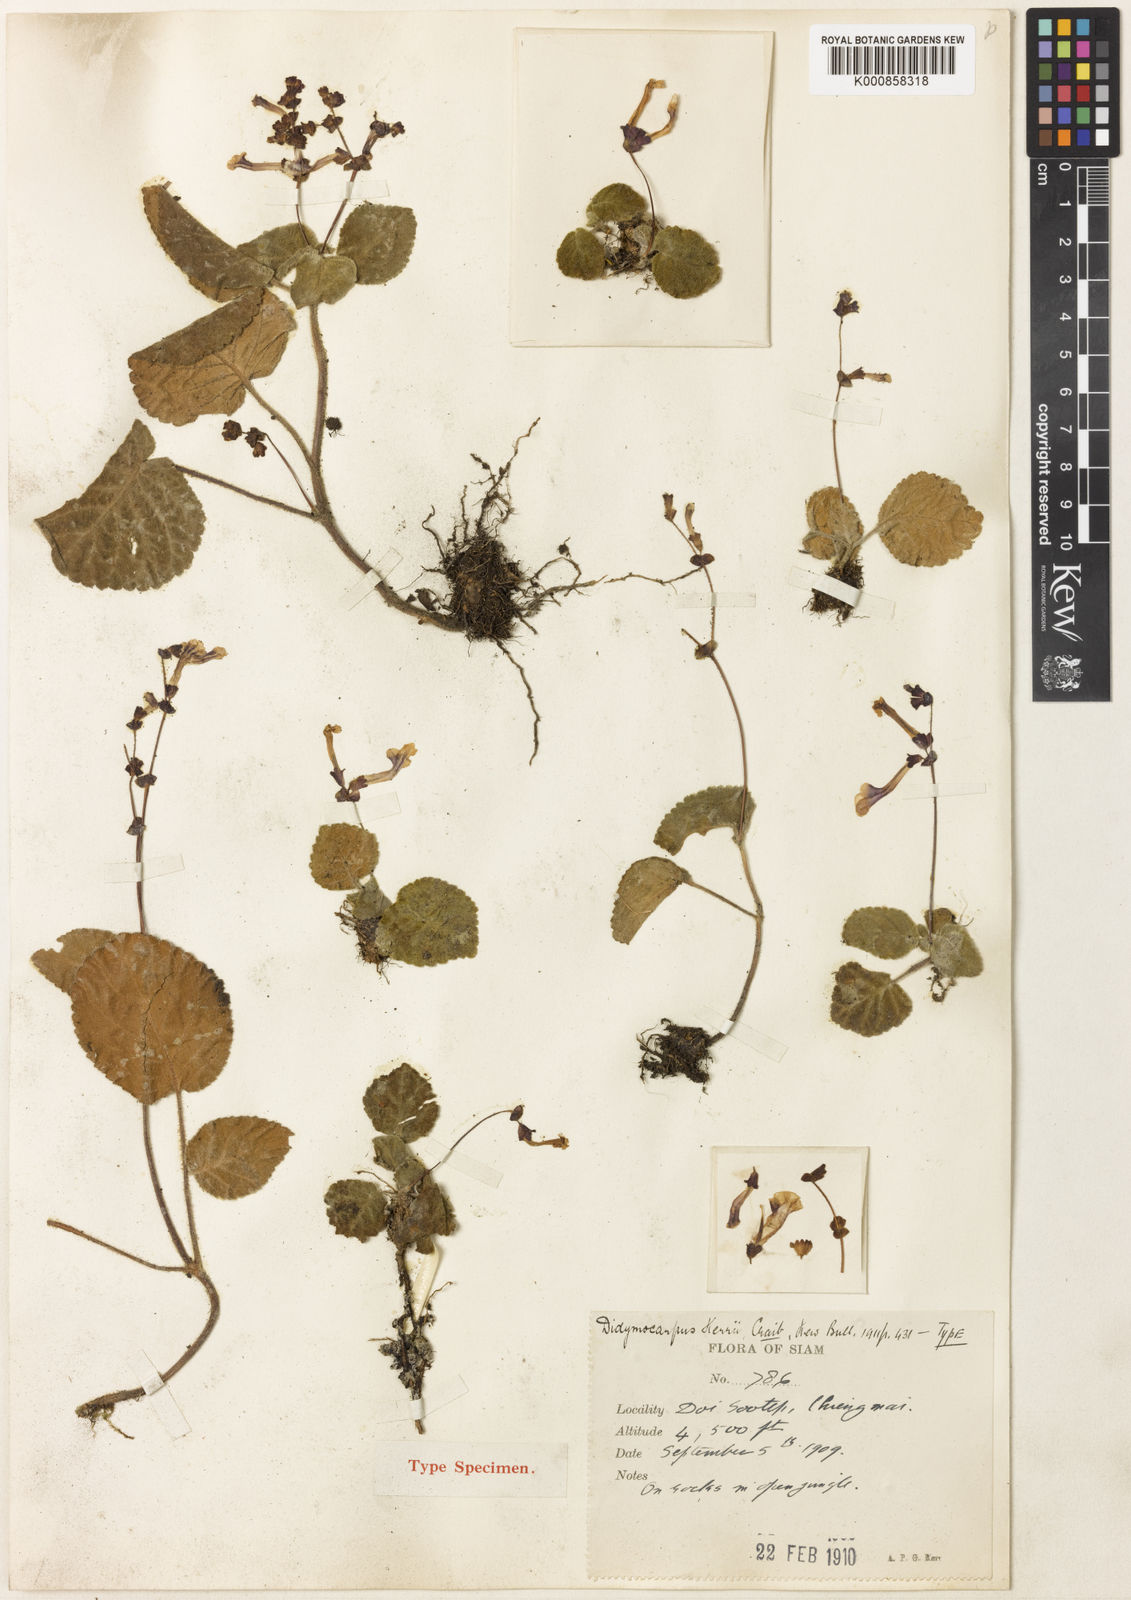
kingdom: Plantae
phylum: Tracheophyta
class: Magnoliopsida
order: Lamiales
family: Gesneriaceae
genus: Didymocarpus
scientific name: Didymocarpus kerrii
